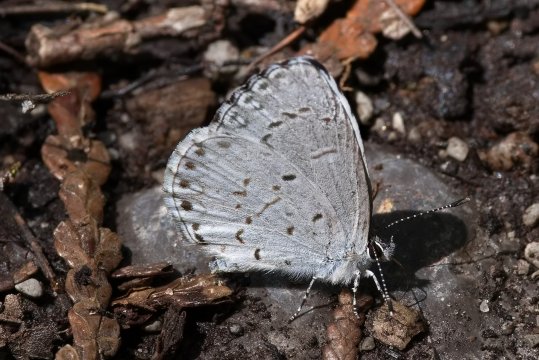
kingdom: Animalia
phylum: Arthropoda
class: Insecta
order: Lepidoptera
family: Lycaenidae
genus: Celastrina
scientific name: Celastrina lucia
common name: Northern Spring Azure
